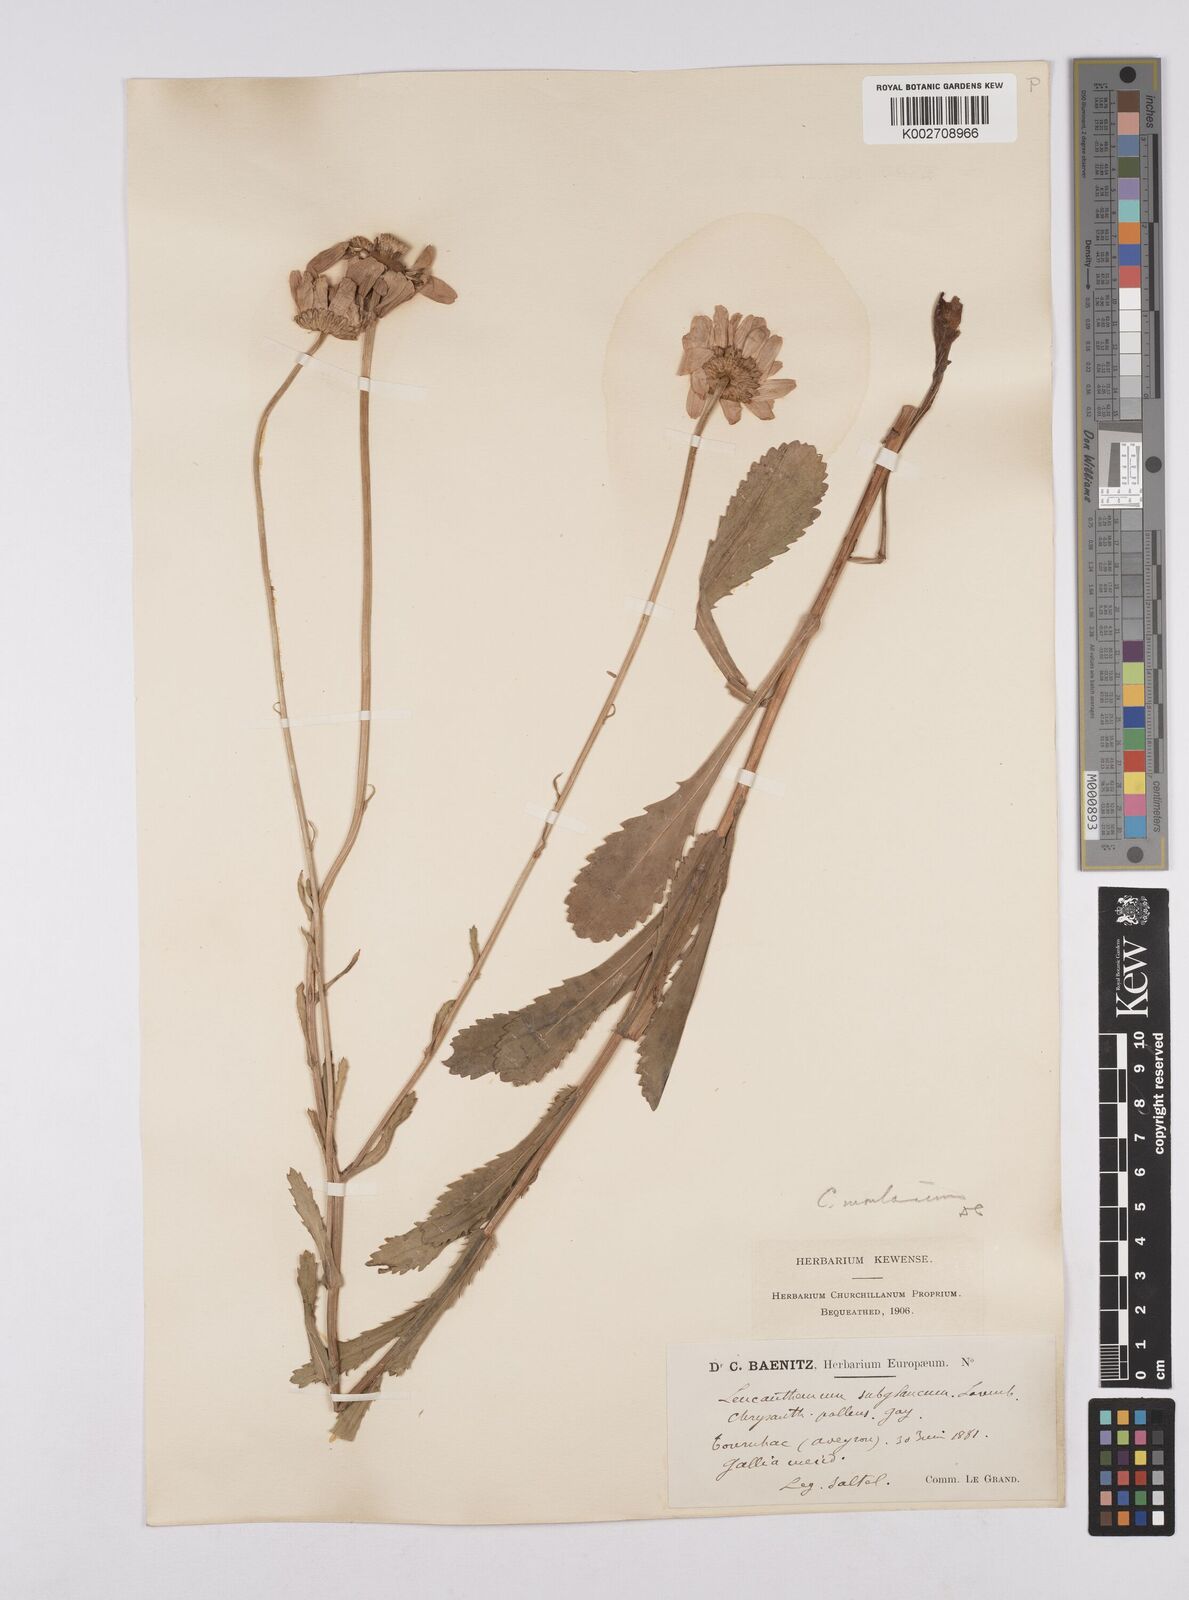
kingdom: Plantae
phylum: Tracheophyta
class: Magnoliopsida
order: Asterales
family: Asteraceae
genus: Leucanthemum
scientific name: Leucanthemum vulgare
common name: Oxeye daisy
